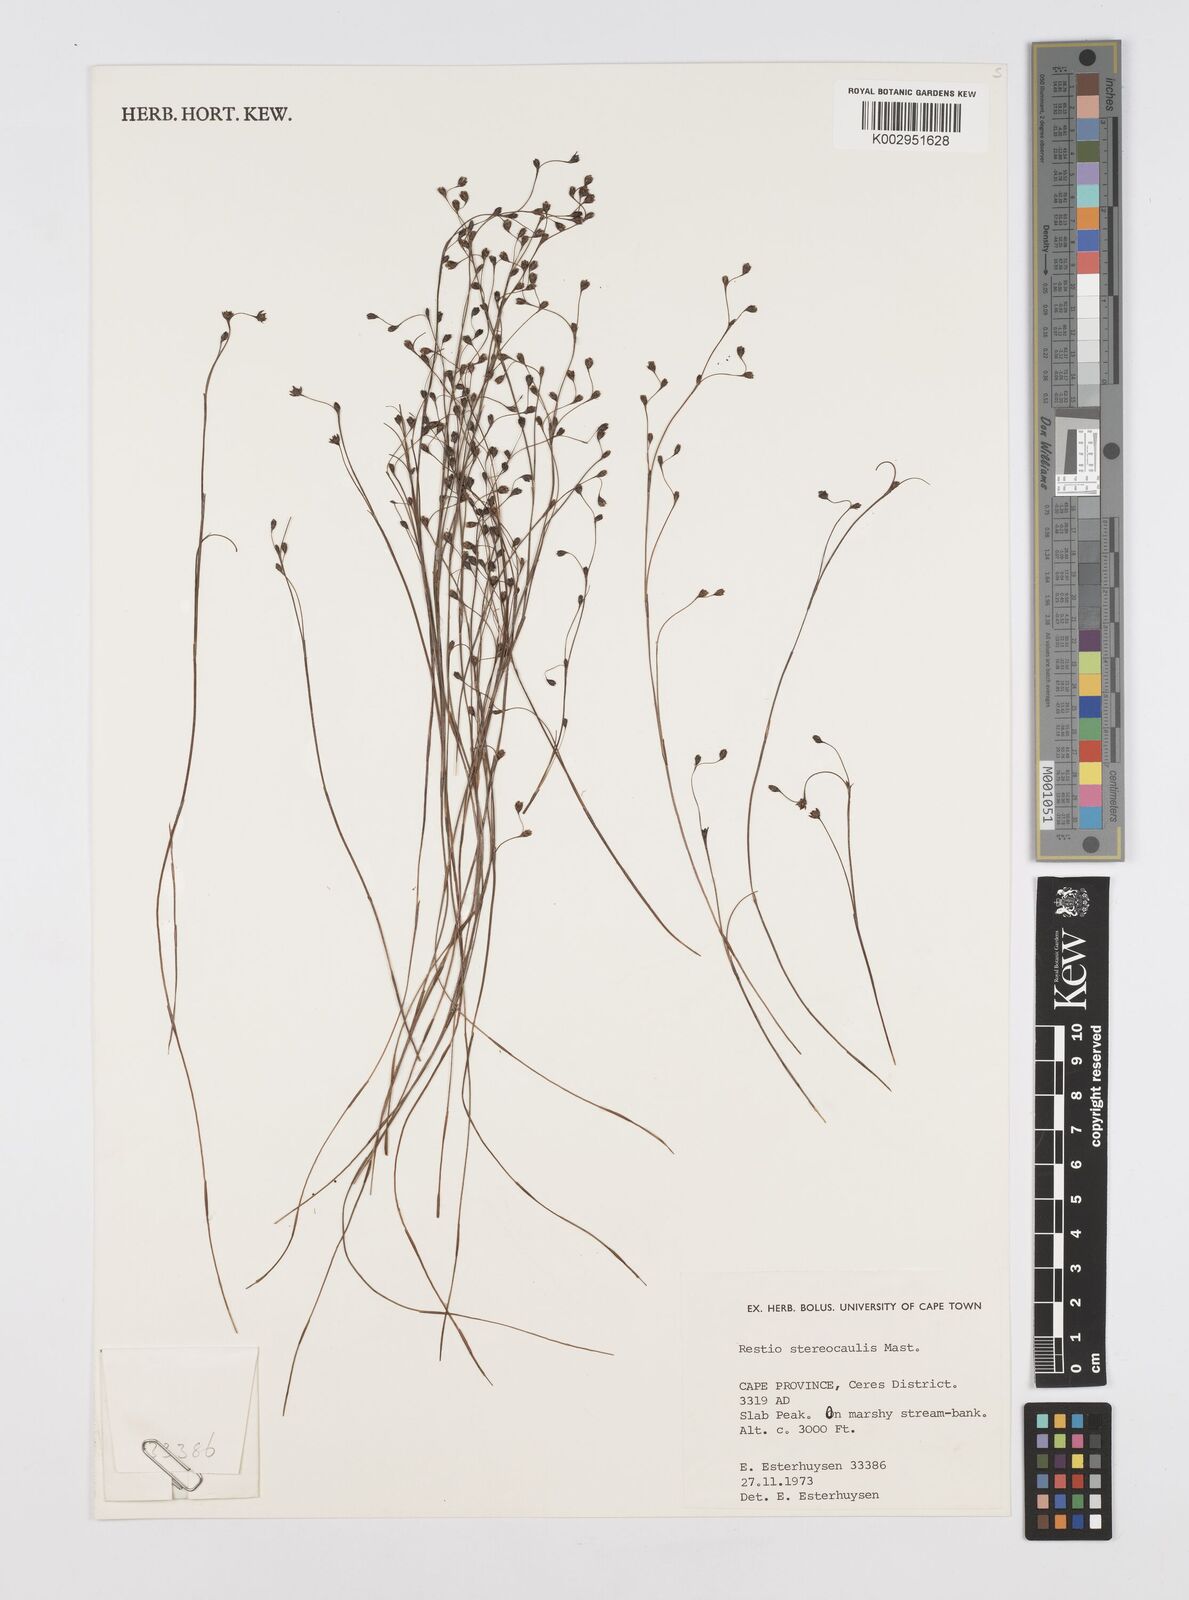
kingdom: Plantae
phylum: Tracheophyta
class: Liliopsida
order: Poales
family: Restionaceae
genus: Restio
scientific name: Restio stereocaulis
